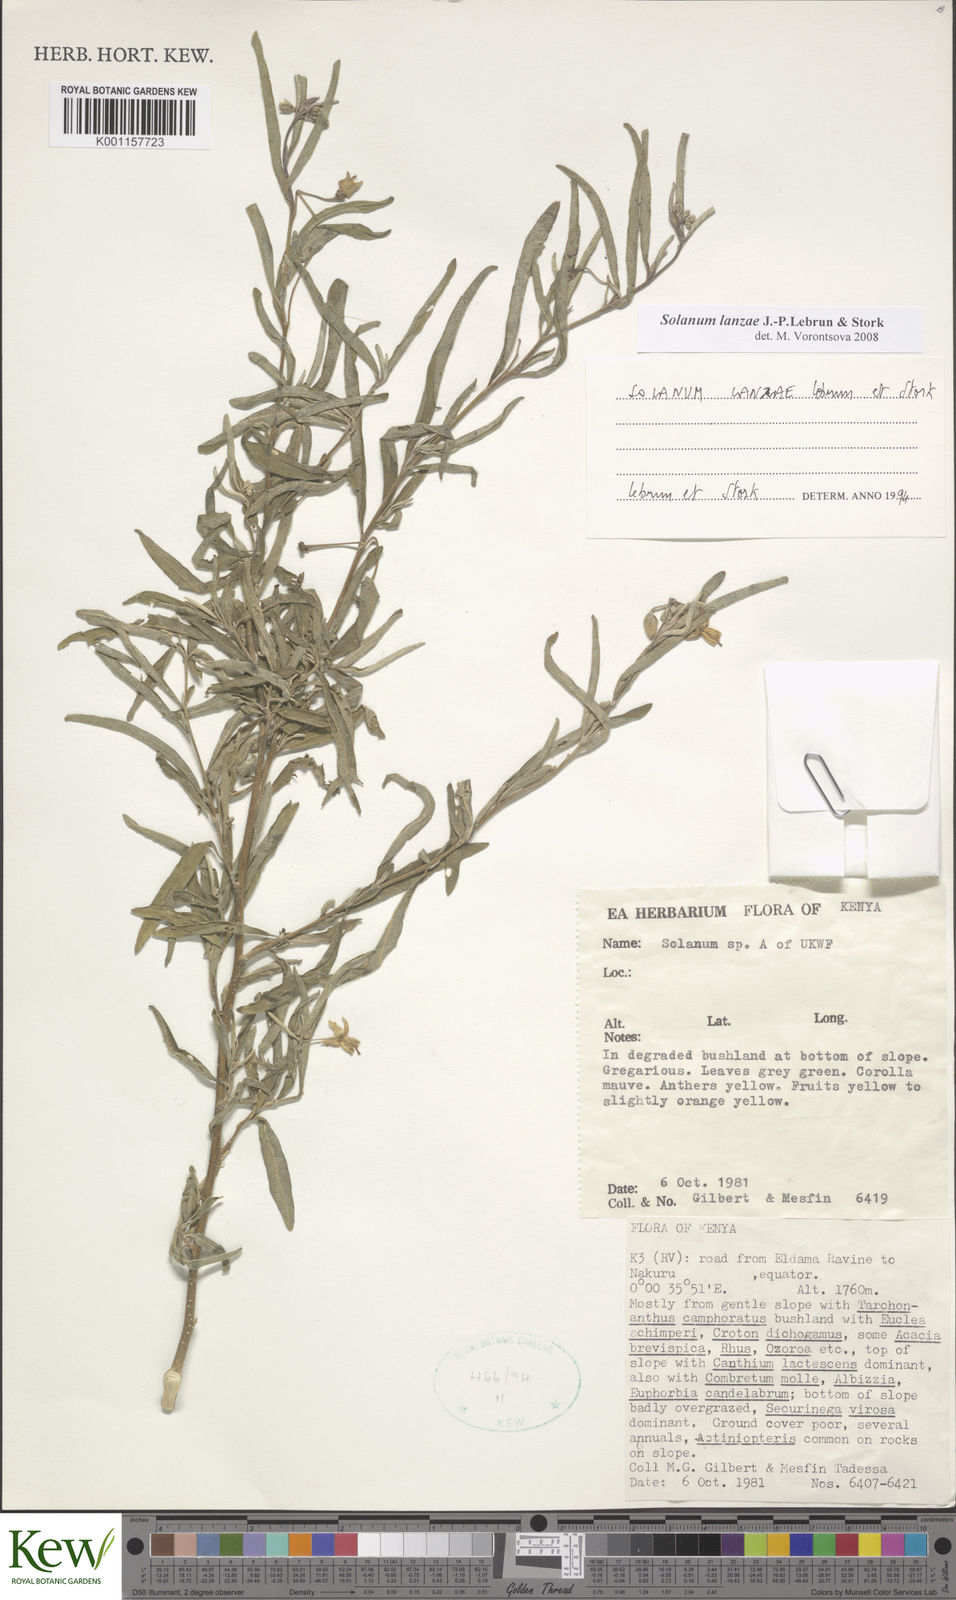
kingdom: Plantae
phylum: Tracheophyta
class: Magnoliopsida
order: Solanales
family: Solanaceae
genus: Solanum
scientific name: Solanum lanzae
